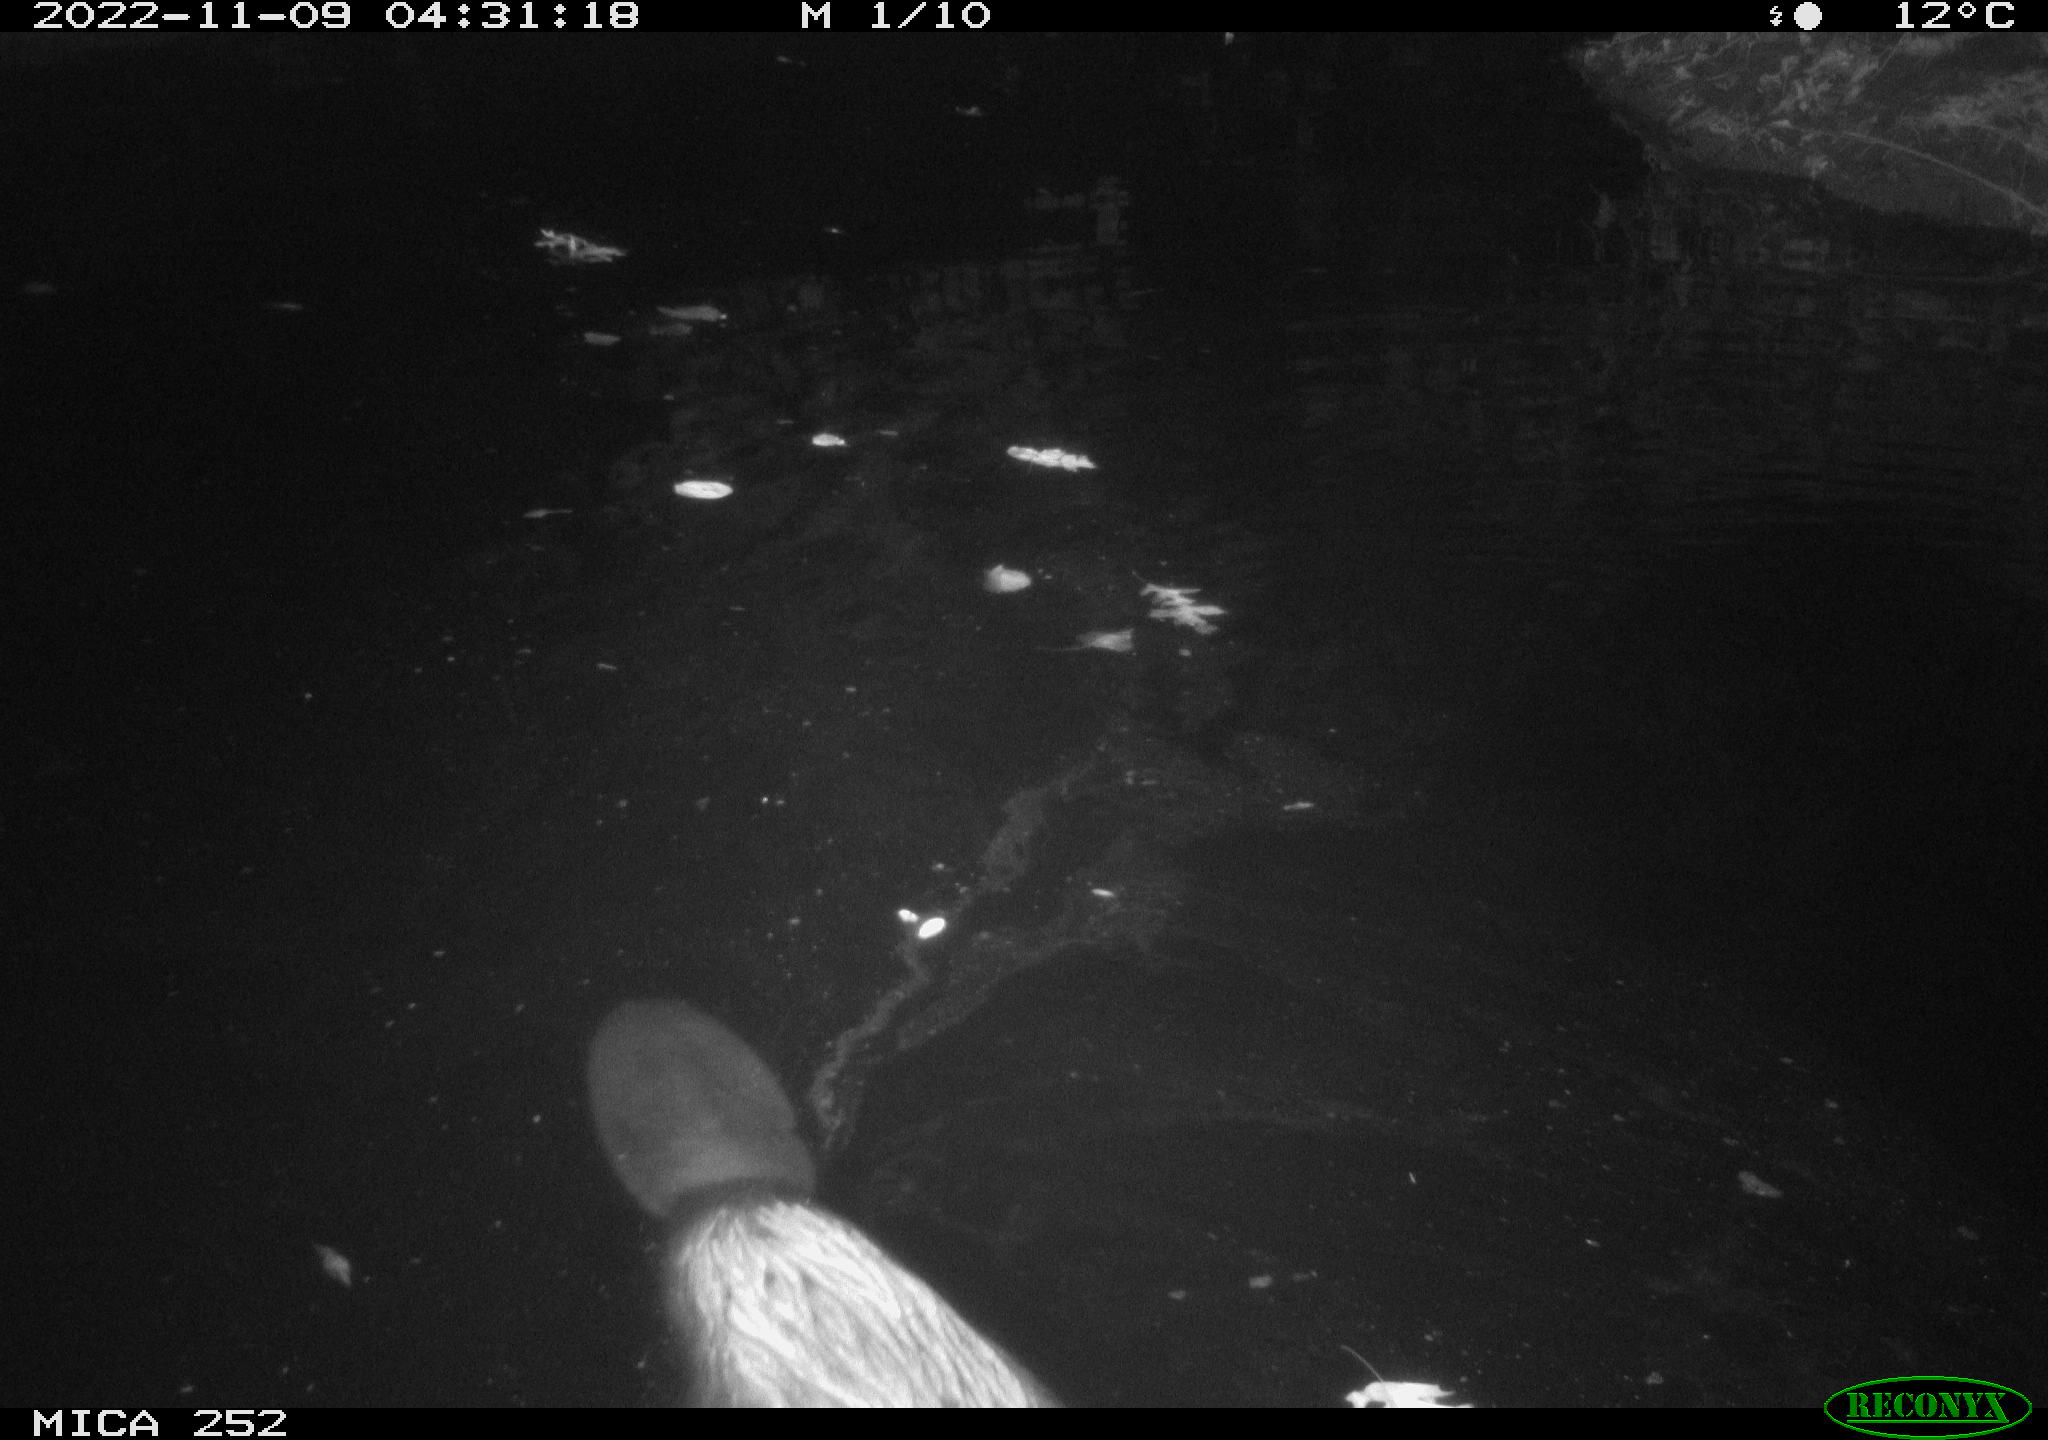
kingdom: Animalia
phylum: Chordata
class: Mammalia
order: Rodentia
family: Castoridae
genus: Castor
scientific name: Castor fiber
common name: Eurasian beaver
